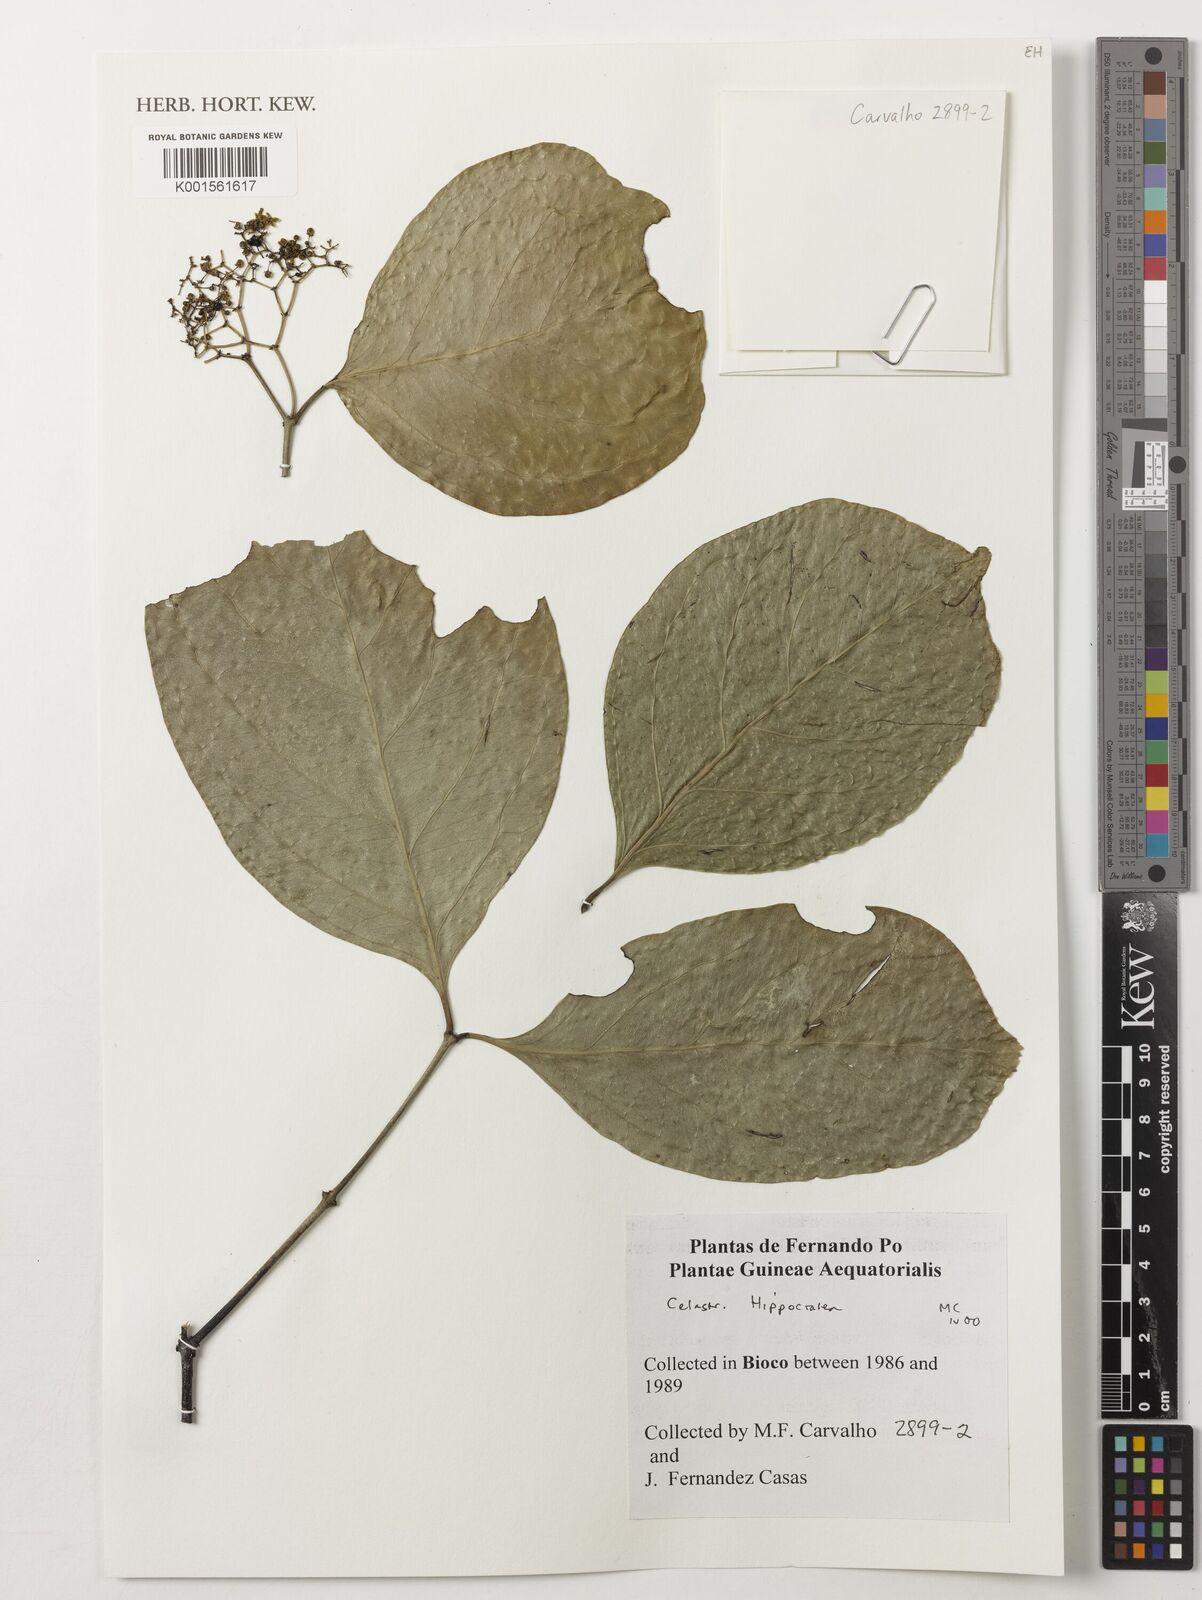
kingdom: Plantae
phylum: Tracheophyta
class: Magnoliopsida
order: Celastrales
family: Celastraceae
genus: Hippocratea
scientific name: Hippocratea
